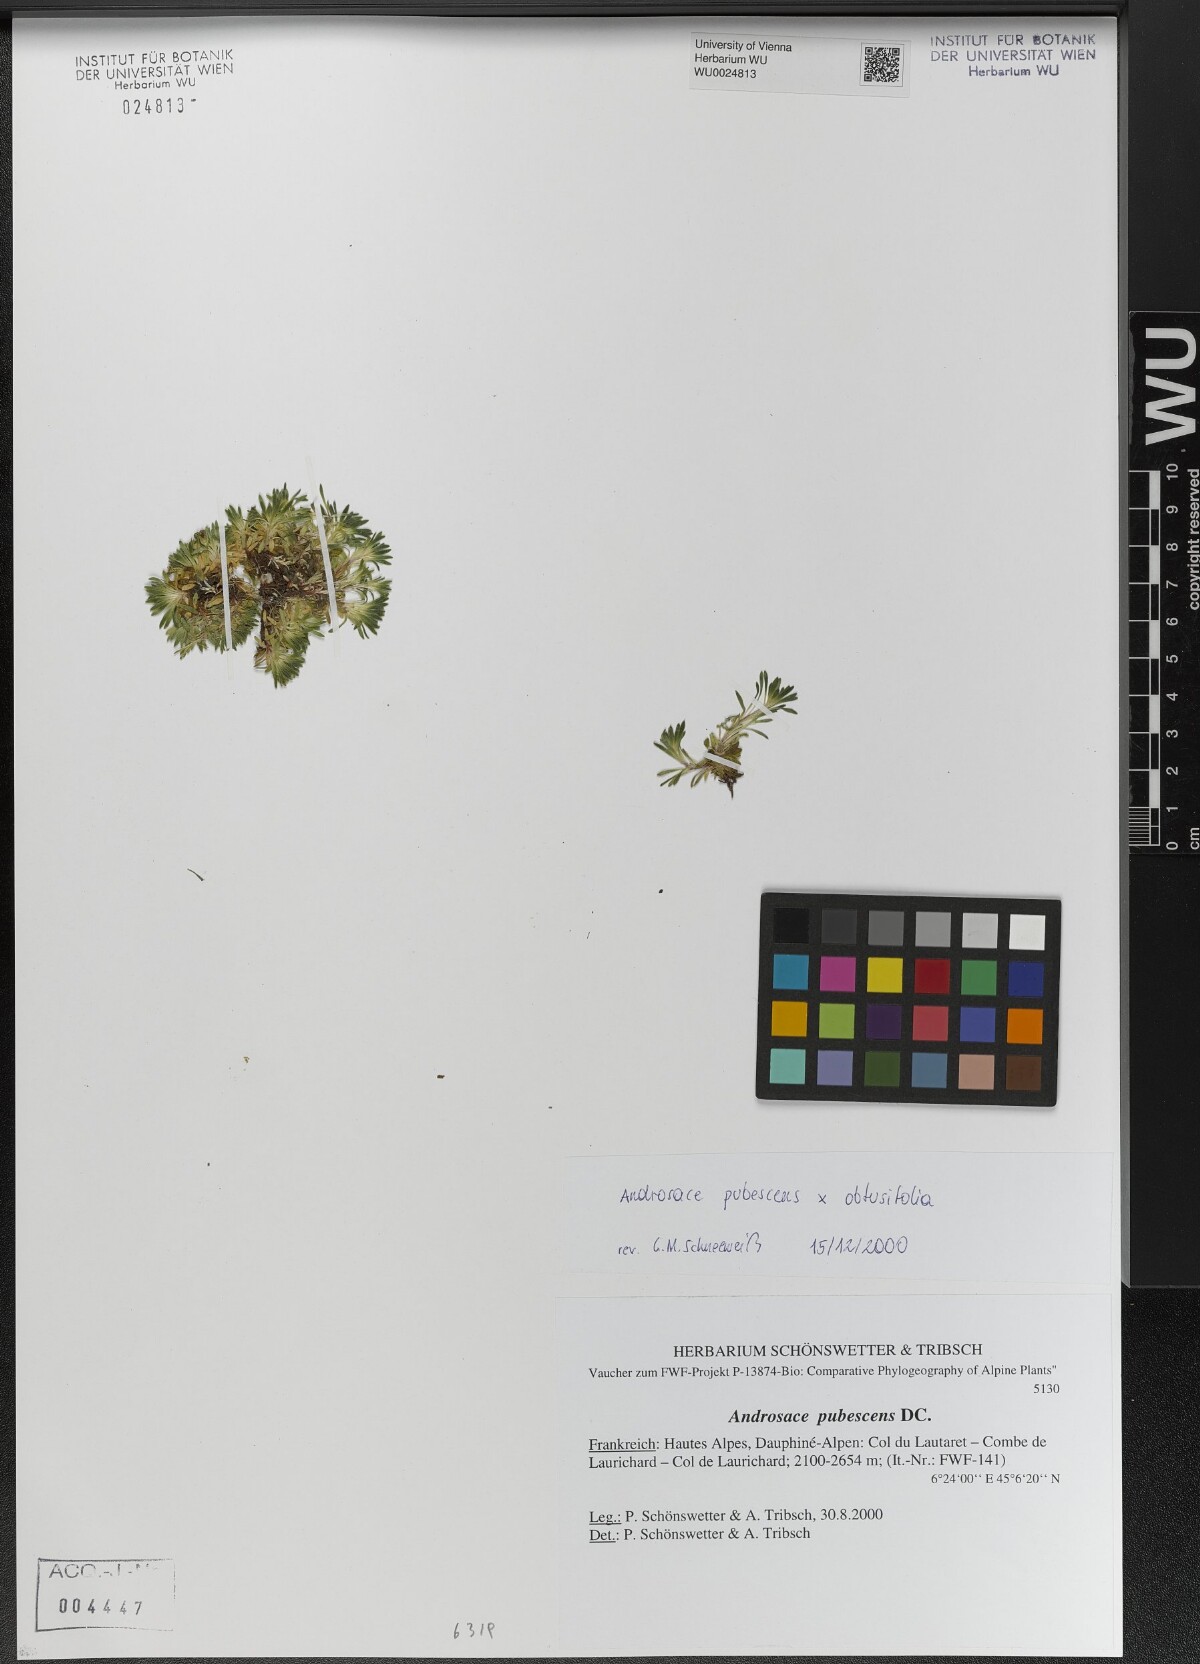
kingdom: Plantae
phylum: Tracheophyta
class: Magnoliopsida
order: Ericales
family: Primulaceae
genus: Androsace
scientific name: Androsace pubescens
